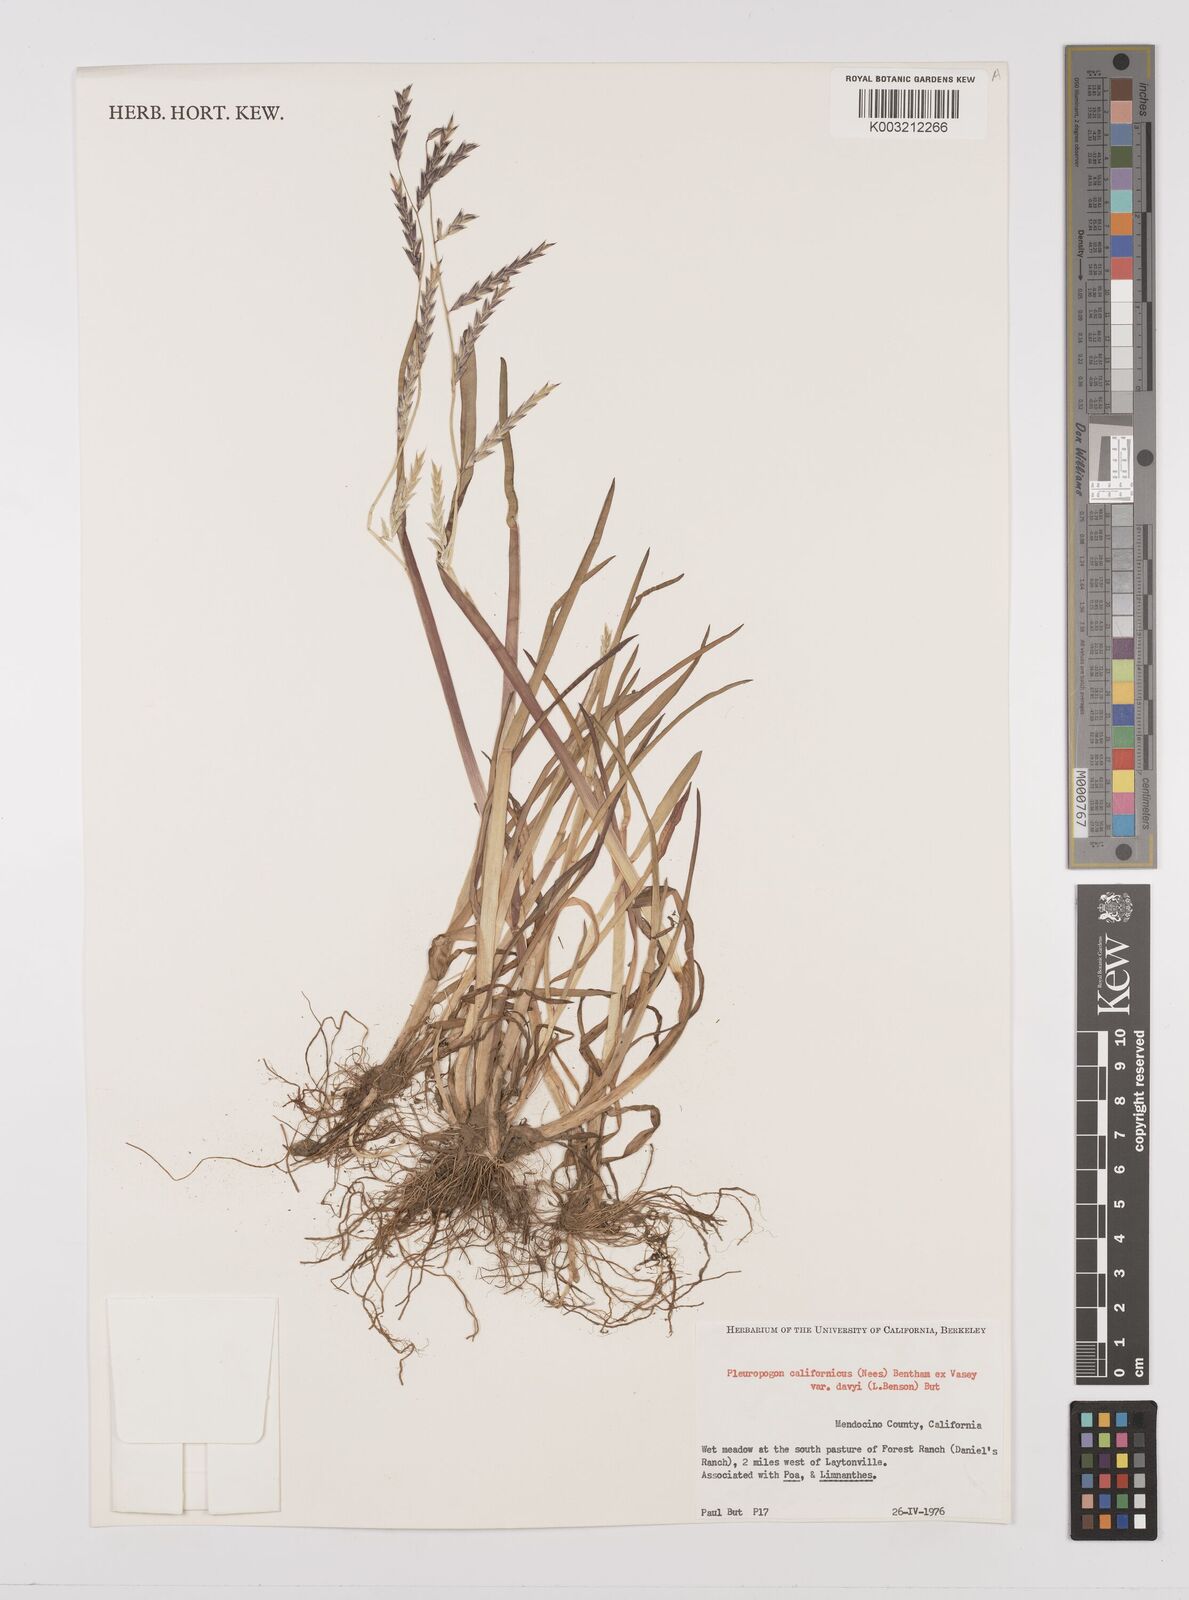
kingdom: Plantae
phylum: Tracheophyta
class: Liliopsida
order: Poales
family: Poaceae
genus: Pleuropogon
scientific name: Pleuropogon californicus
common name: California semaphore grass
